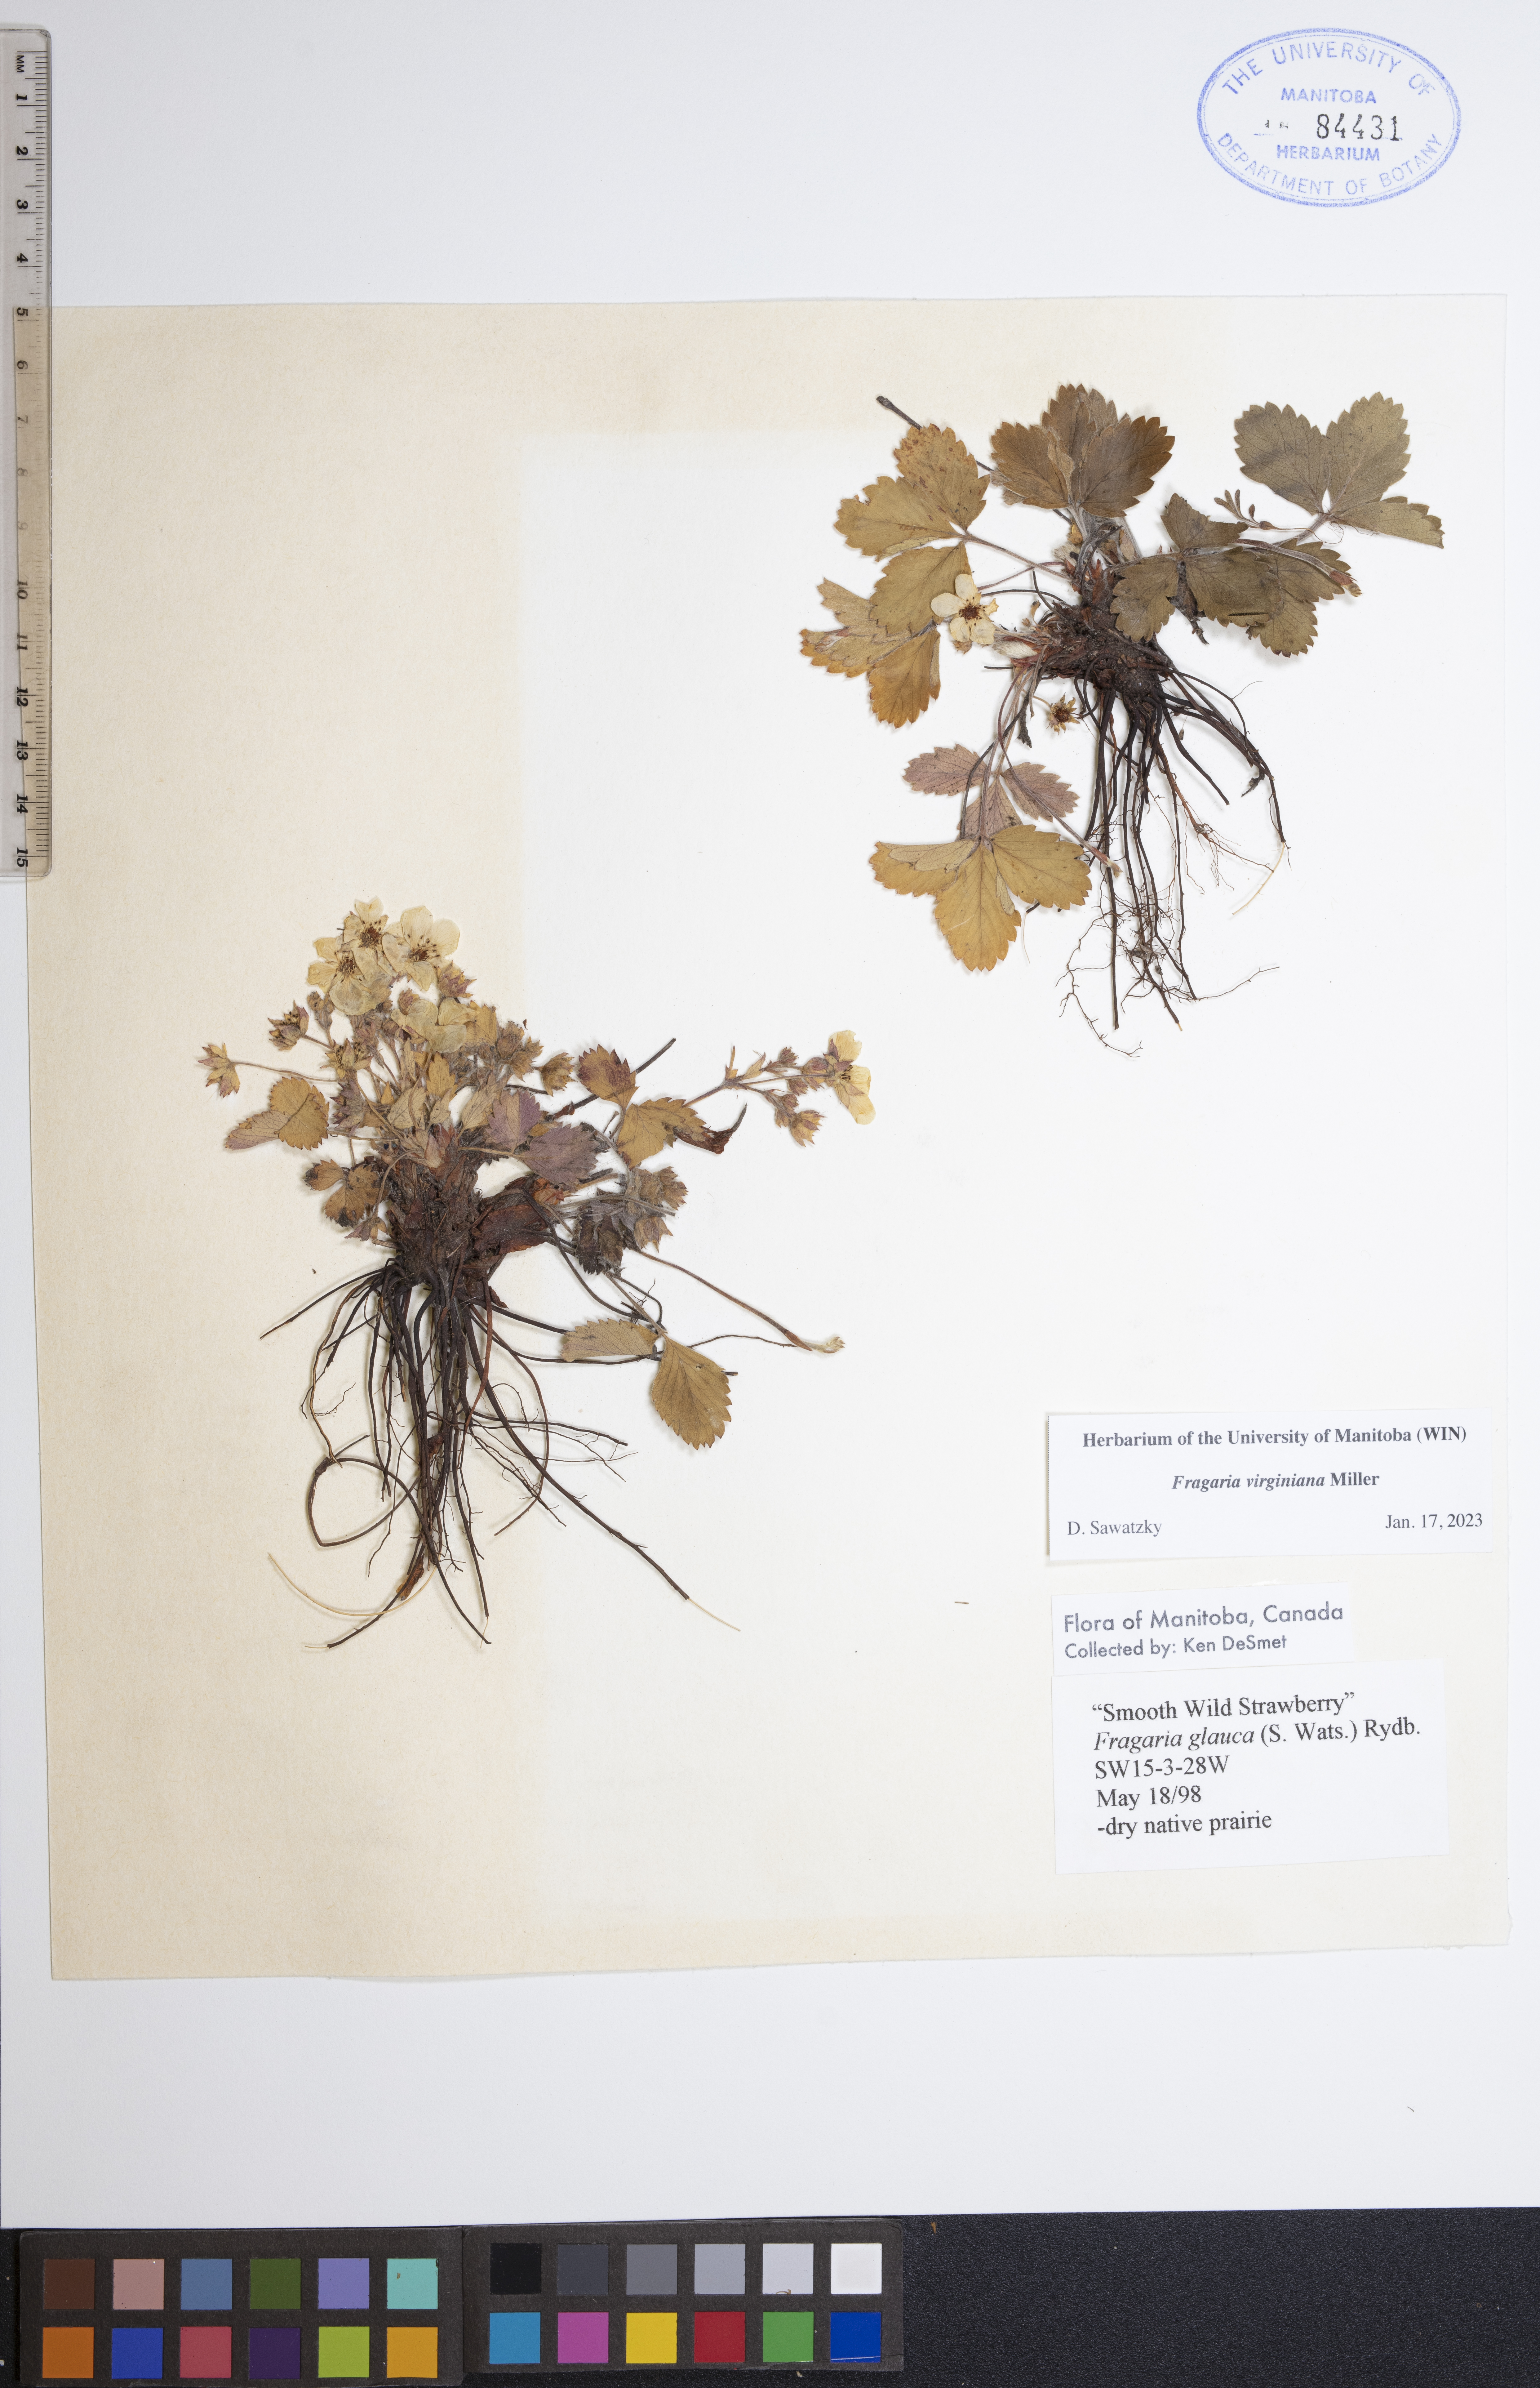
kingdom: Plantae
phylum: Tracheophyta
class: Magnoliopsida
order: Rosales
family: Rosaceae
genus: Fragaria
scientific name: Fragaria virginiana
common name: Thickleaved wild strawberry
